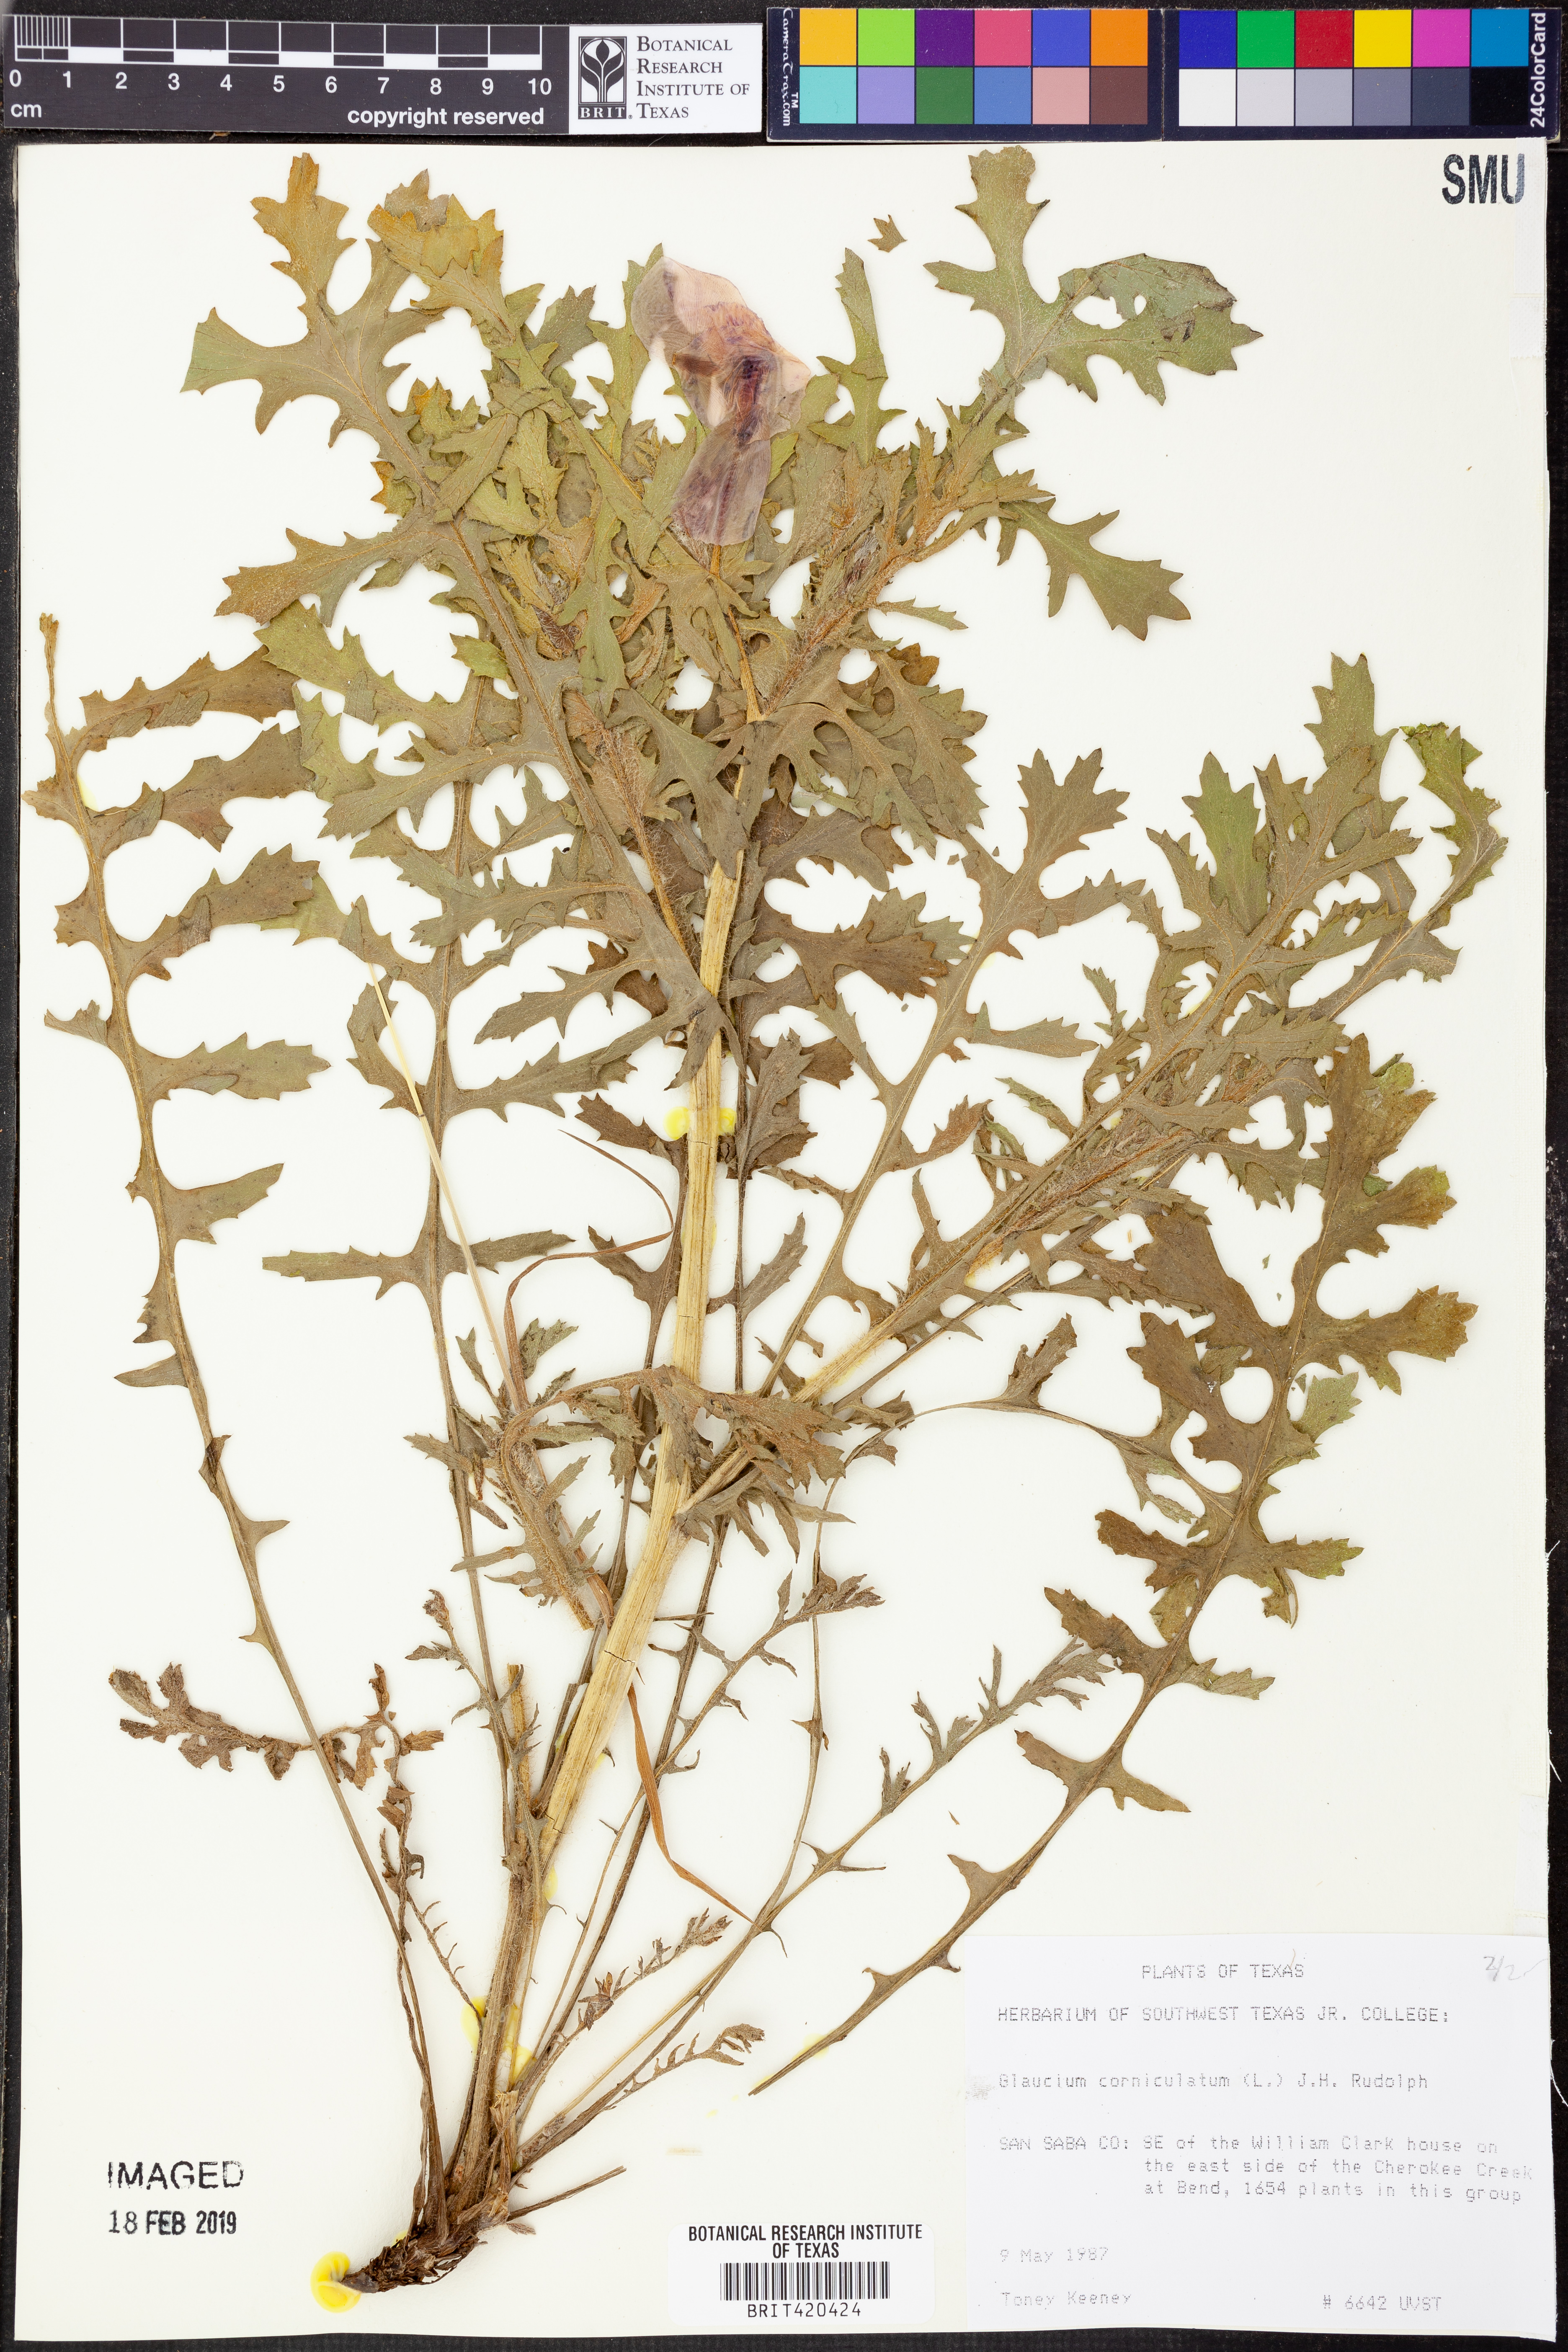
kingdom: Plantae
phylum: Tracheophyta
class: Magnoliopsida
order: Ranunculales
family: Papaveraceae
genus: Glaucium
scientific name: Glaucium corniculatum
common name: Red horned-poppy
